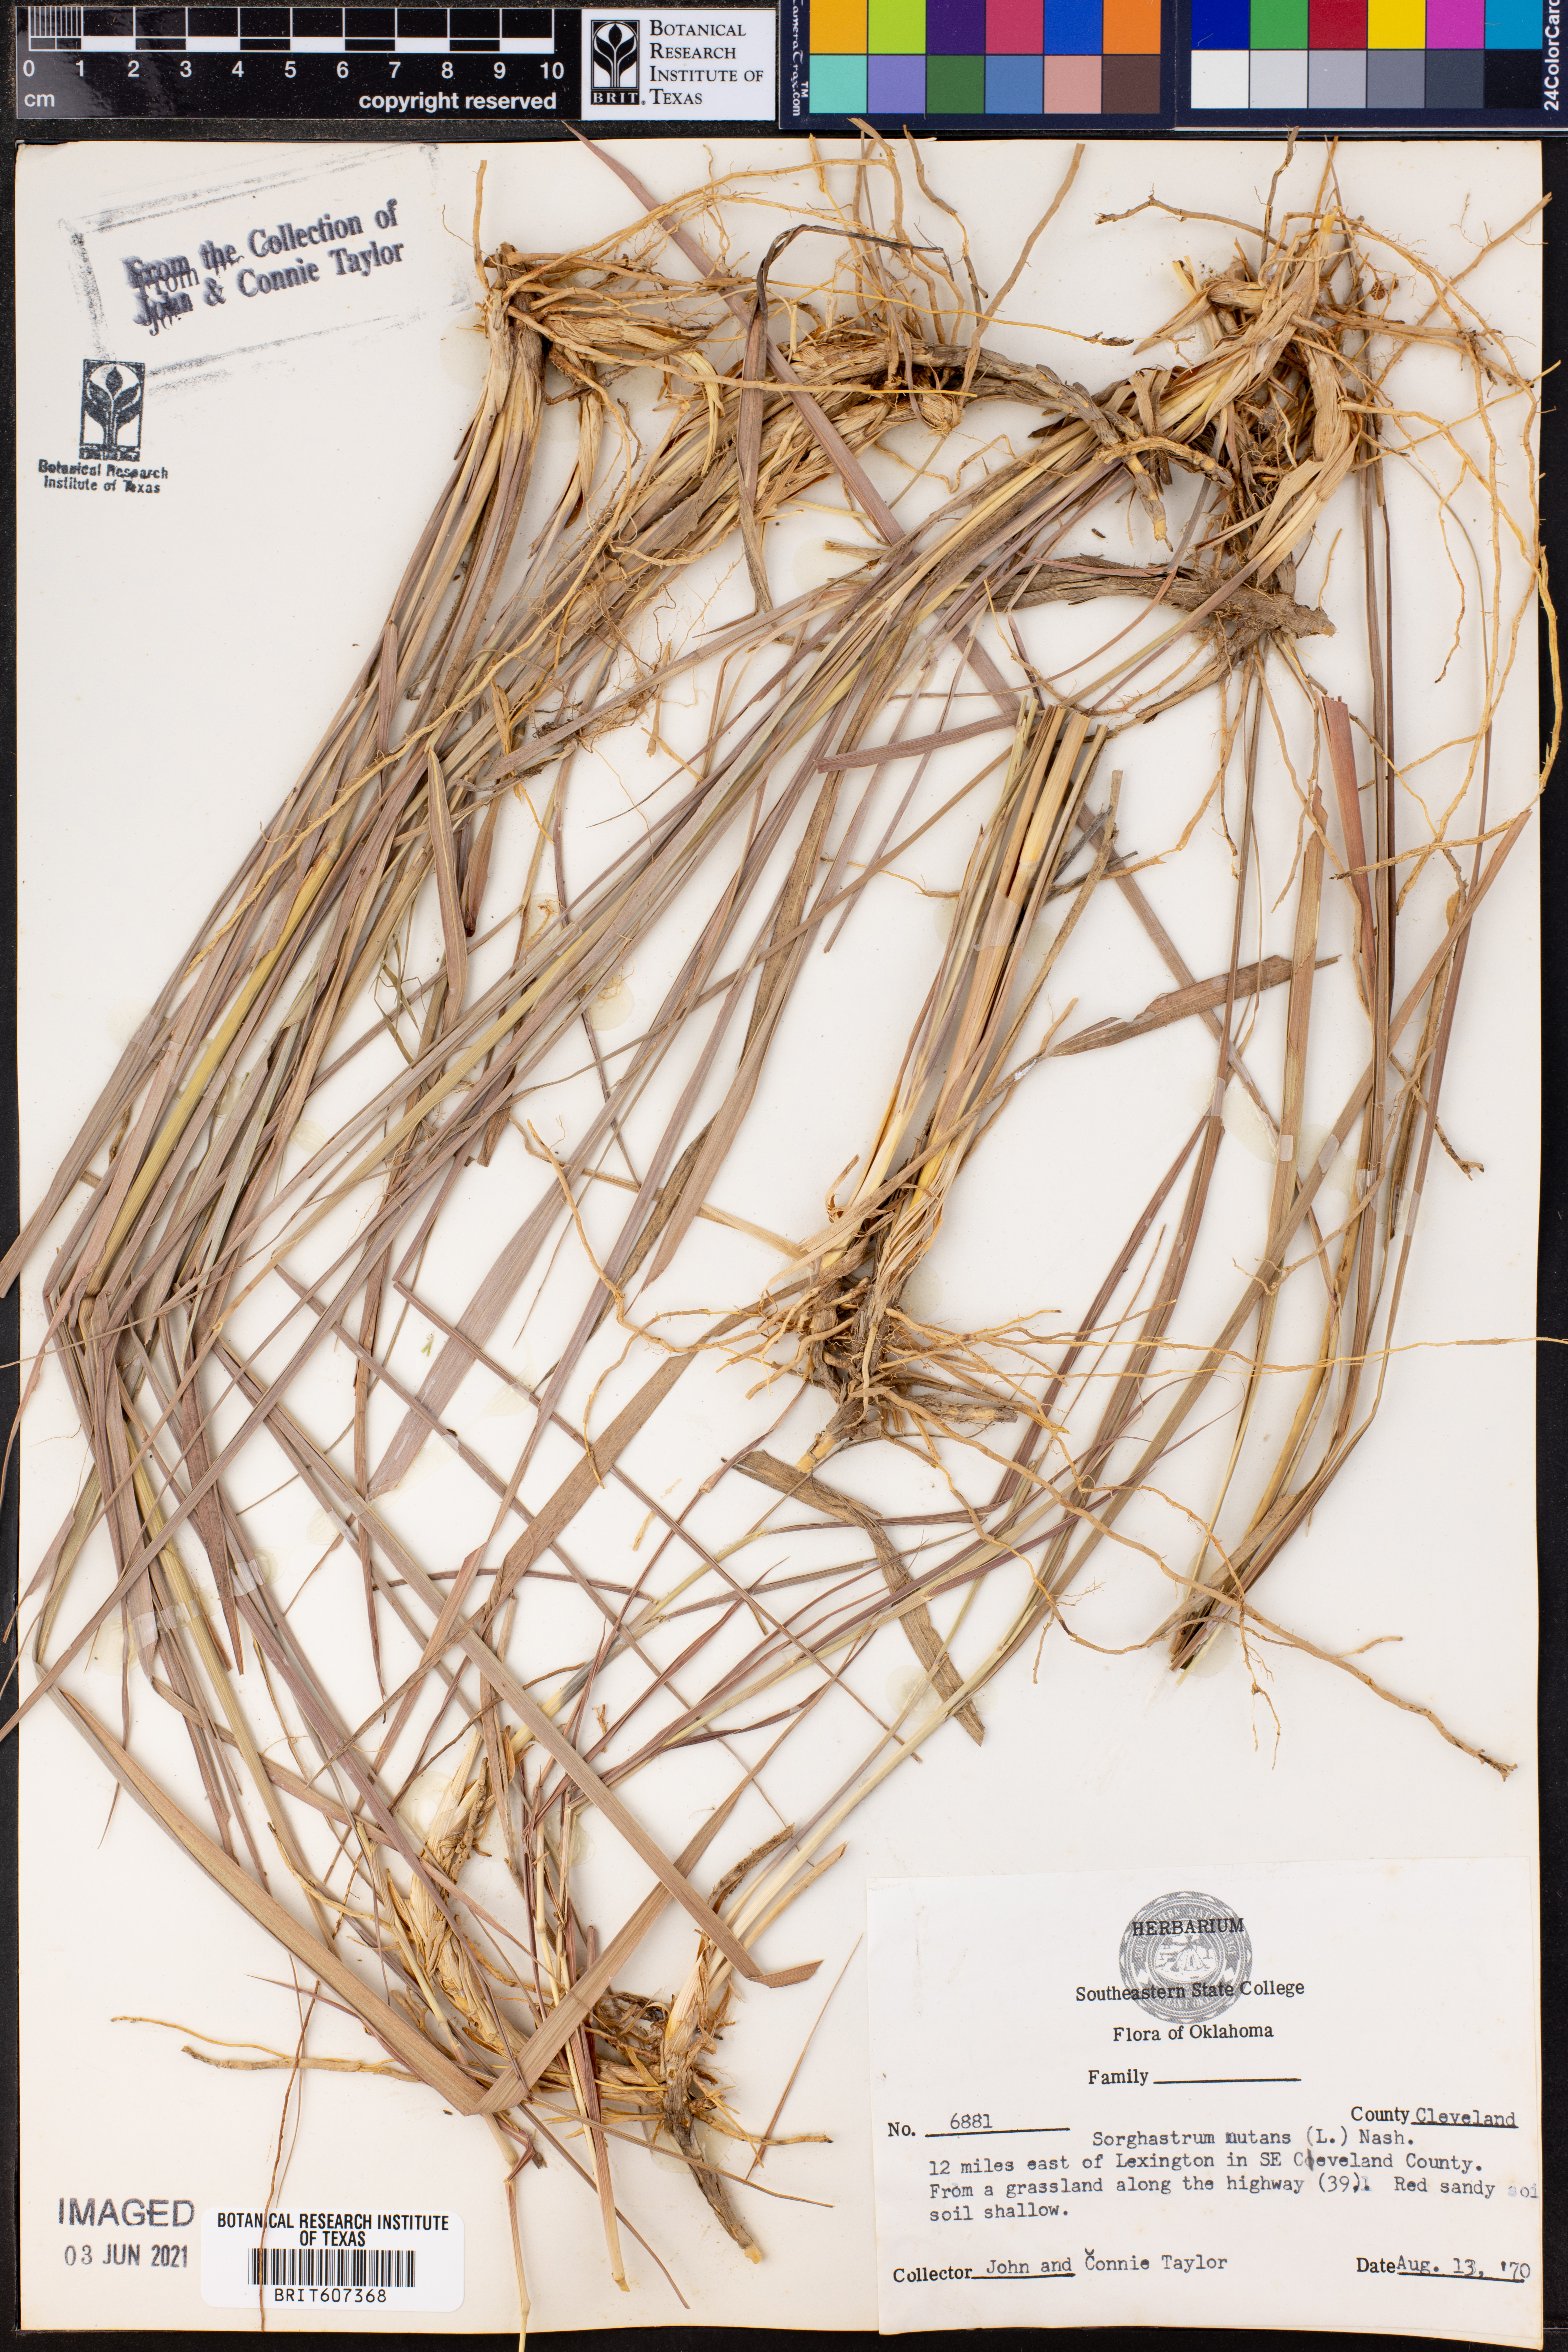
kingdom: Plantae
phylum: Tracheophyta
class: Liliopsida
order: Poales
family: Poaceae
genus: Sorghastrum
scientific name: Sorghastrum nutans
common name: Indian grass
